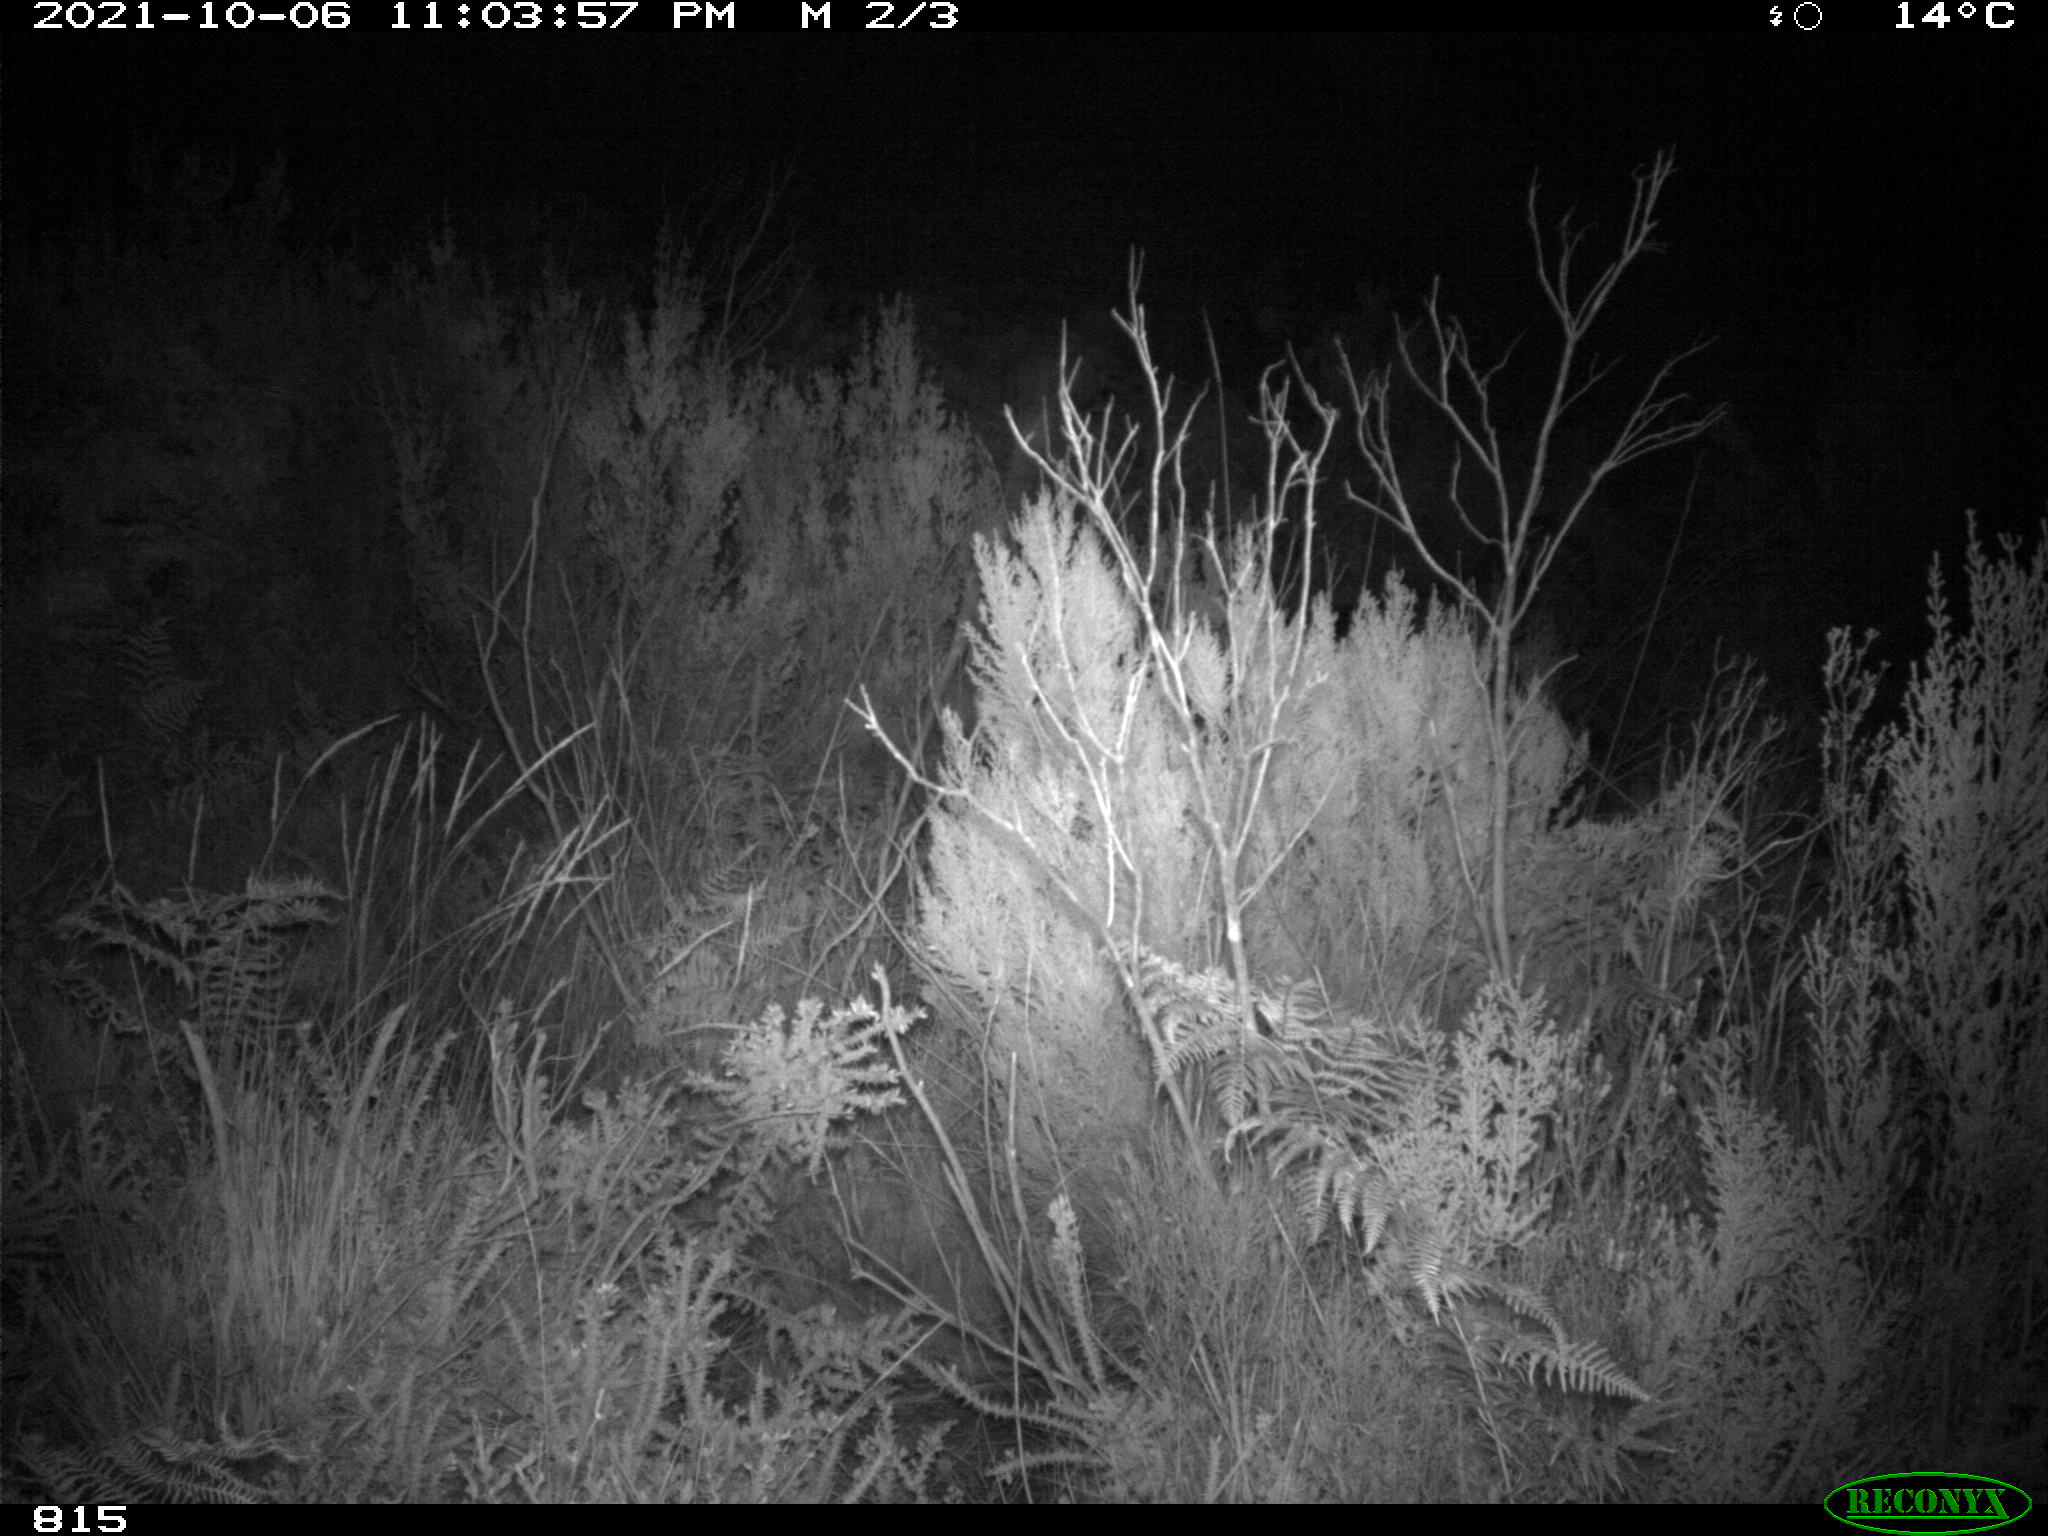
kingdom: Animalia
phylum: Chordata
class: Mammalia
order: Perissodactyla
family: Equidae
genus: Equus
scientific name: Equus caballus
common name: Horse
